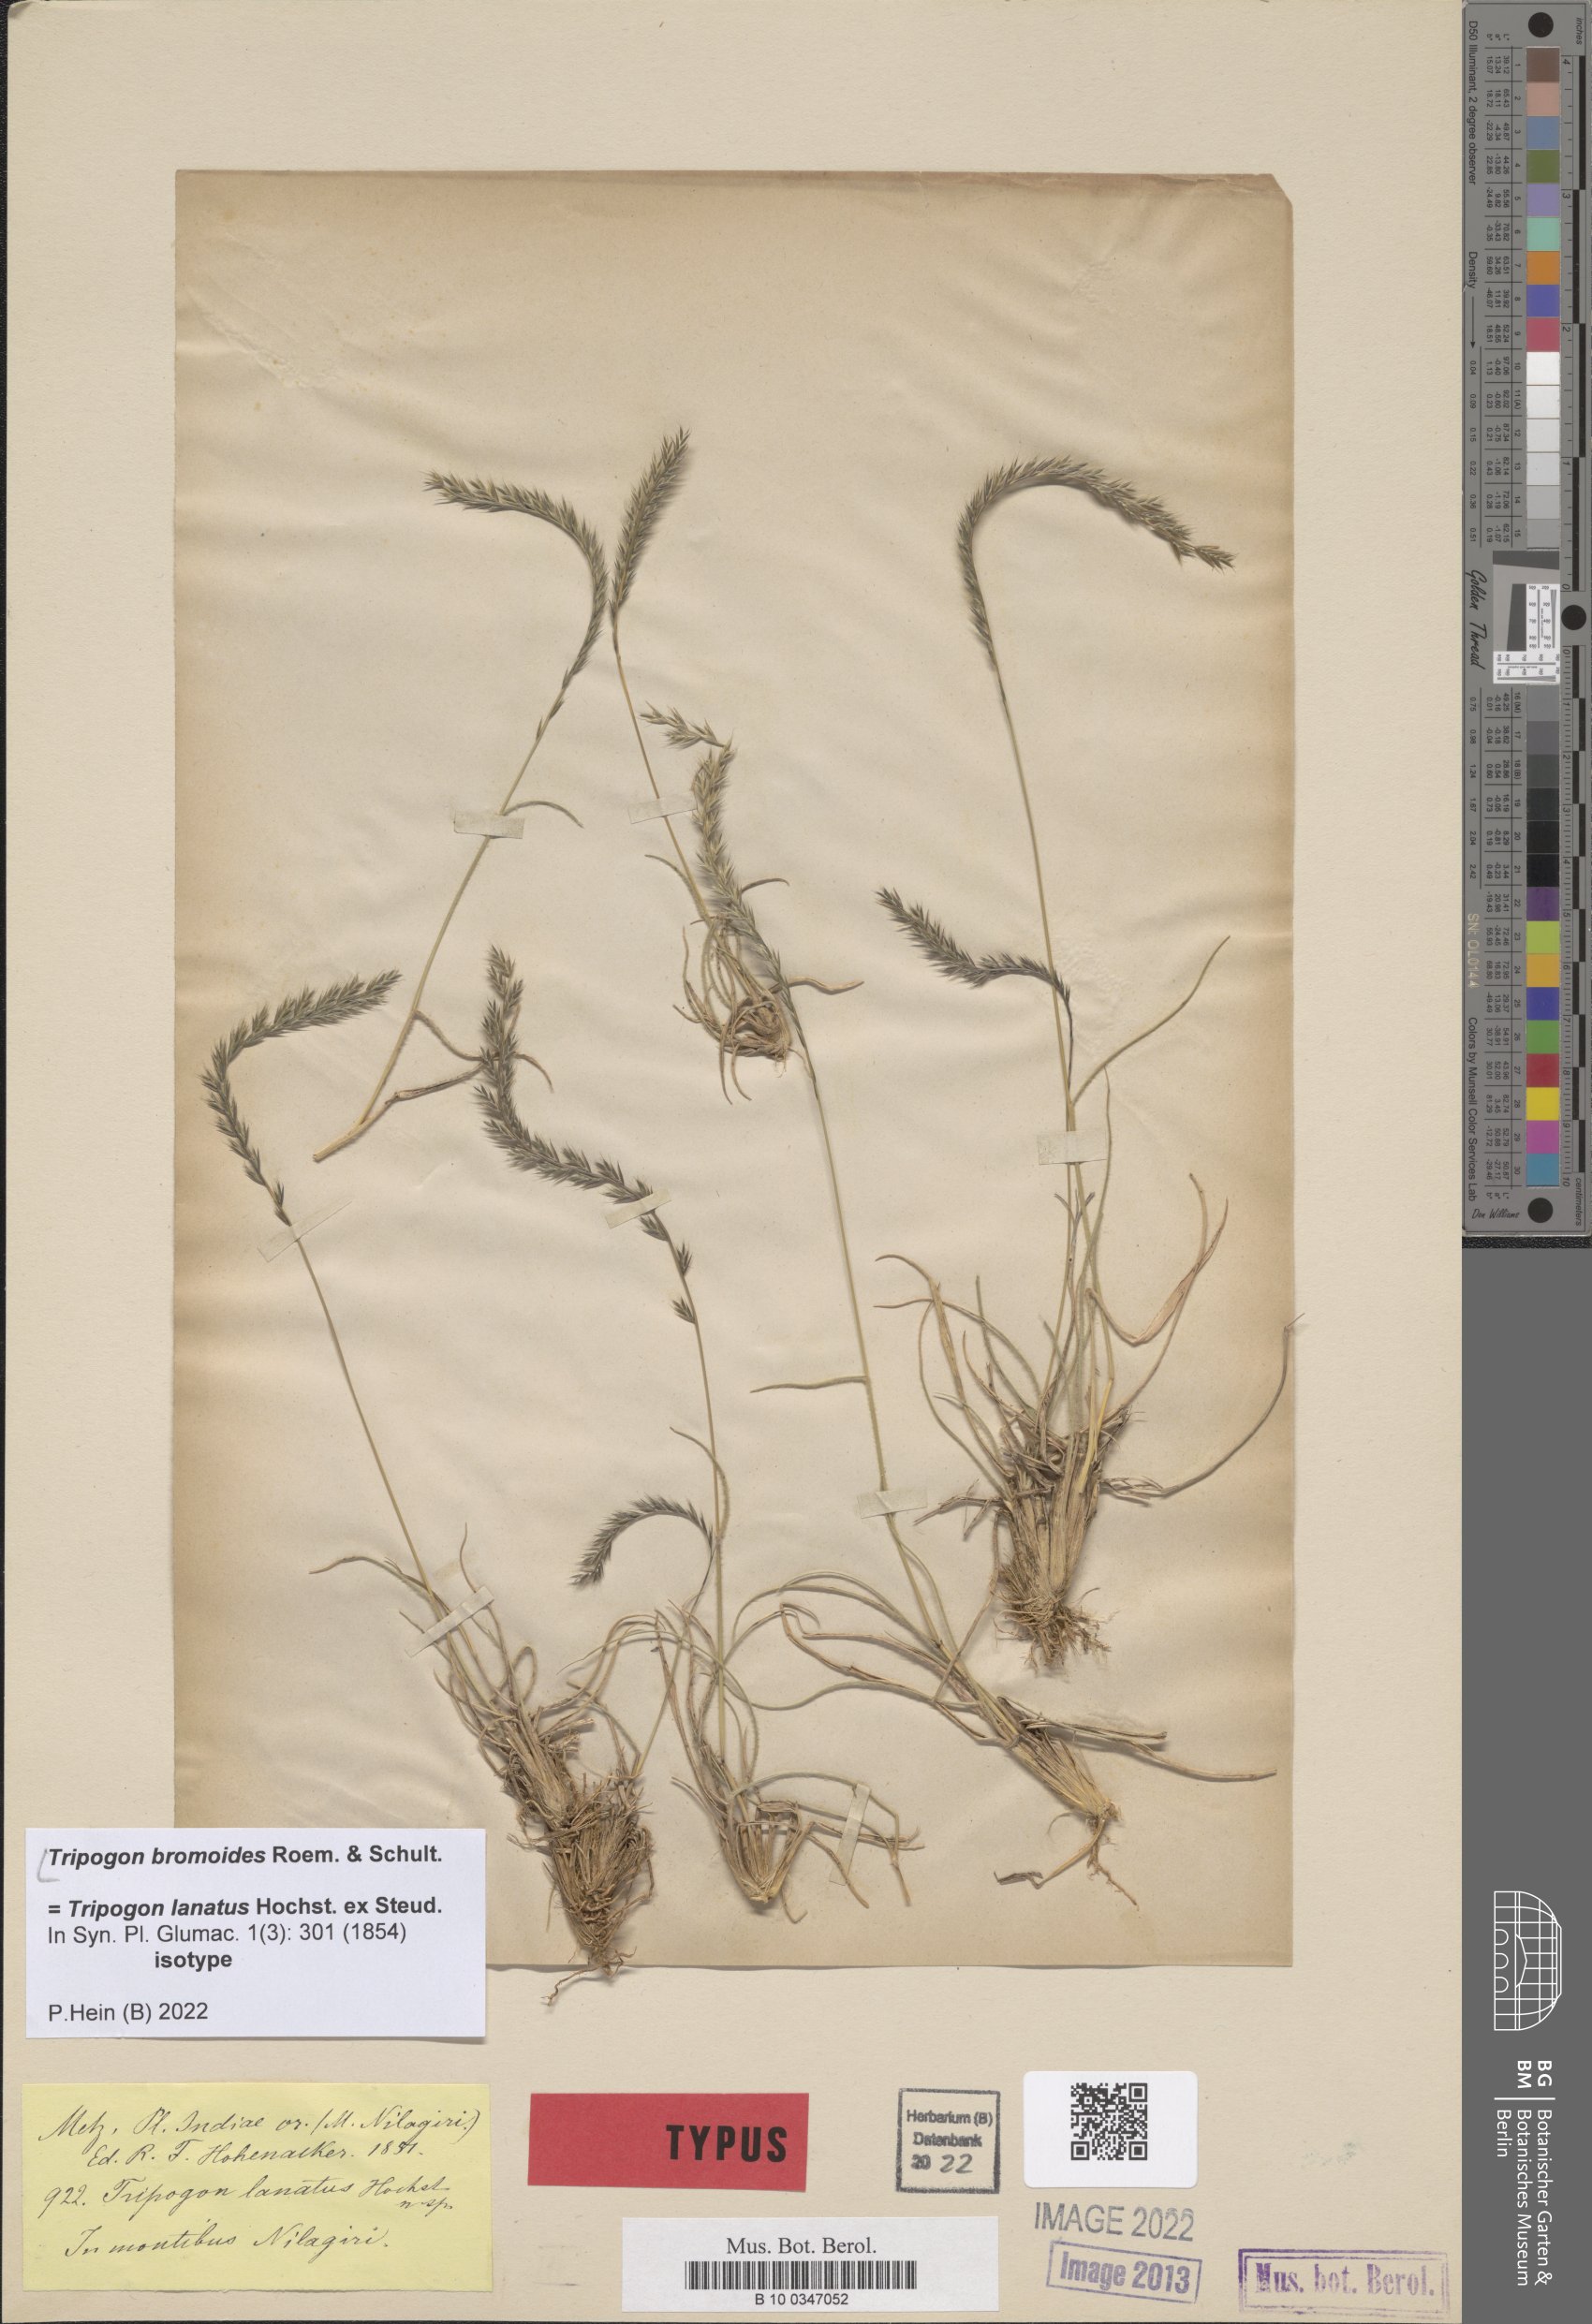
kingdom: Plantae
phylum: Tracheophyta
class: Liliopsida
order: Poales
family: Poaceae
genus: Tripogon
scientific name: Tripogon bromoides
